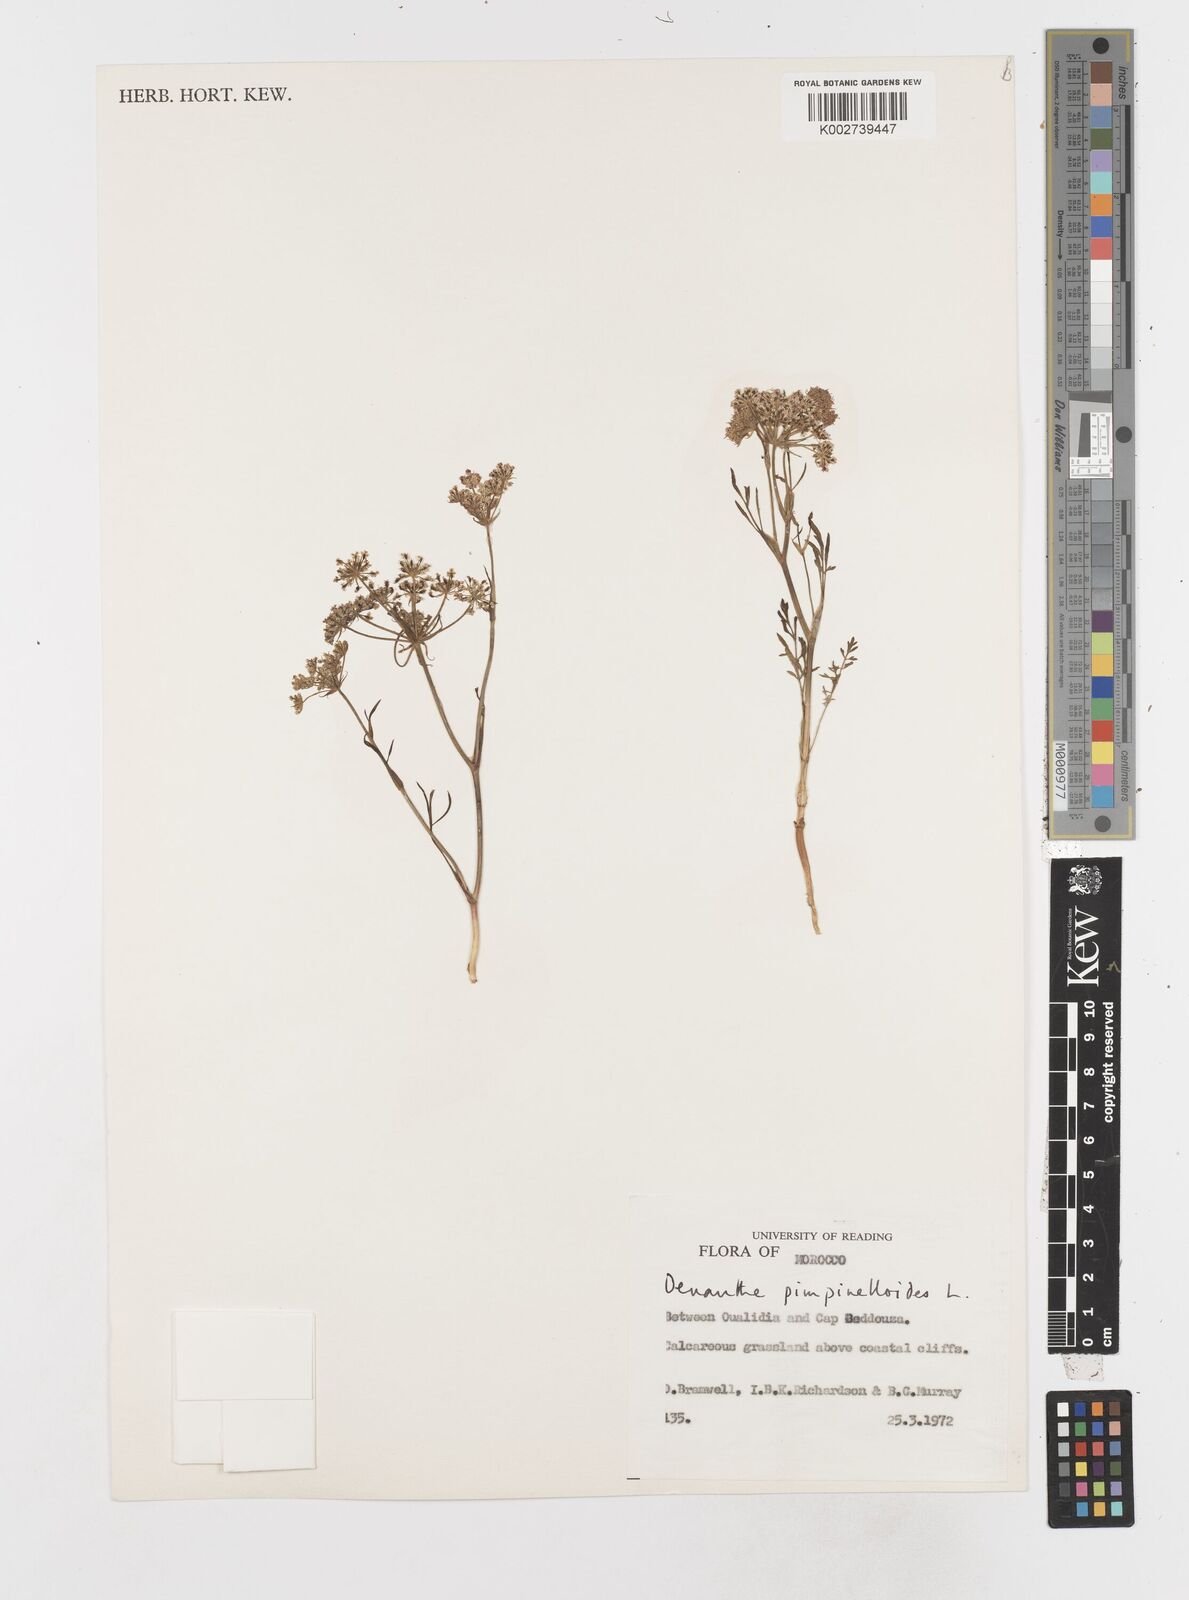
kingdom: Plantae
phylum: Tracheophyta
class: Magnoliopsida
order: Apiales
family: Apiaceae
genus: Oenanthe
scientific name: Oenanthe pimpinelloides
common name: Corky-fruited water-dropwort
